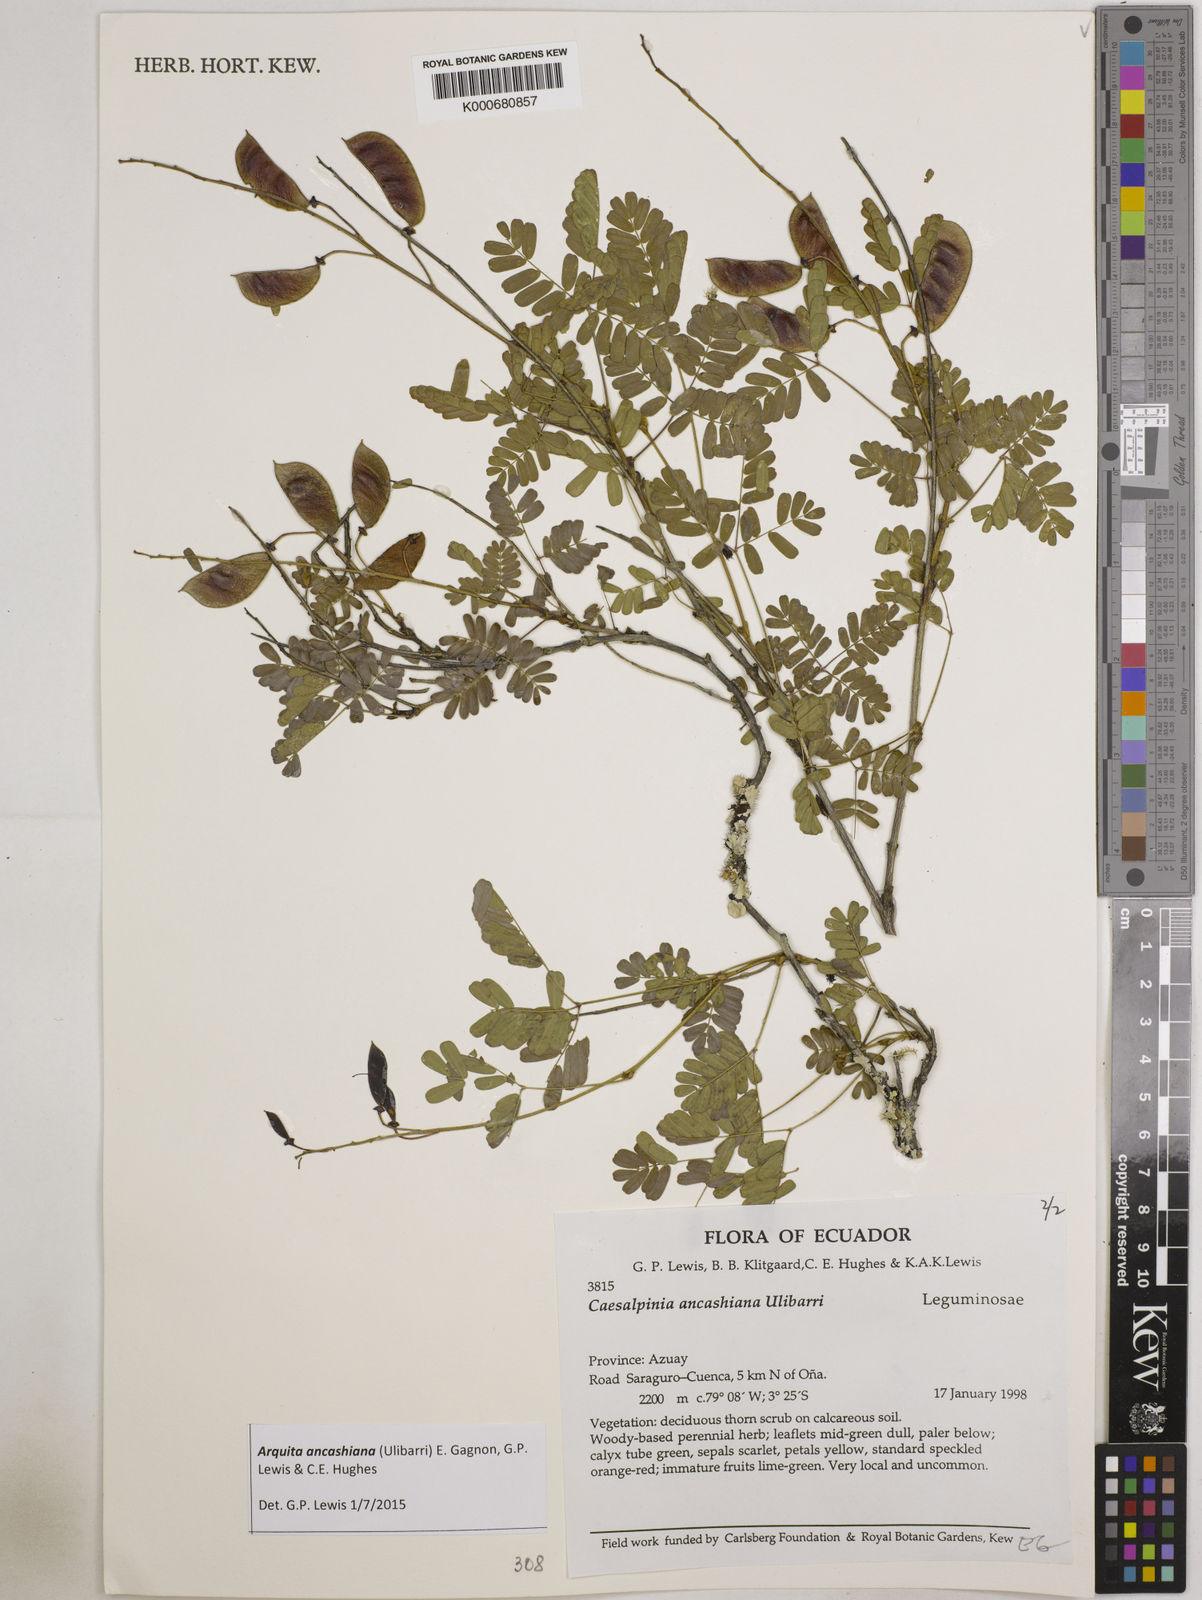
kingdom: Plantae
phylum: Tracheophyta
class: Magnoliopsida
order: Fabales
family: Fabaceae
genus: Arquita
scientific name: Arquita ancashiana
